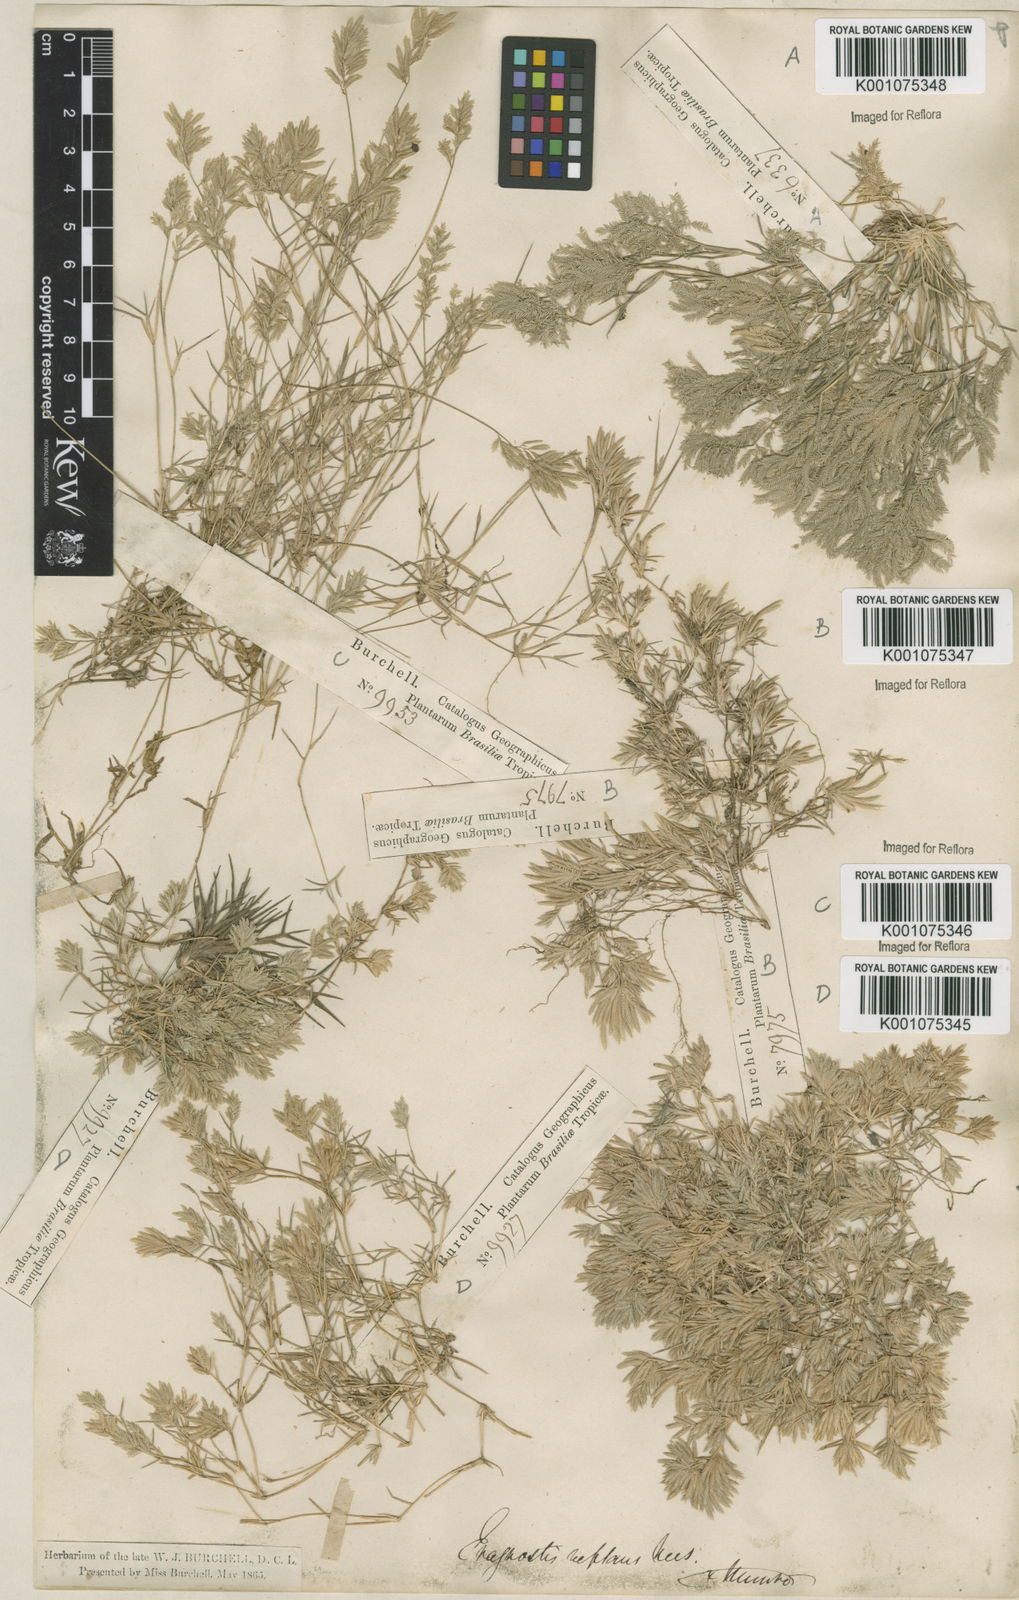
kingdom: Plantae
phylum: Tracheophyta
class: Liliopsida
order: Poales
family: Poaceae
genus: Eragrostis
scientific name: Eragrostis
